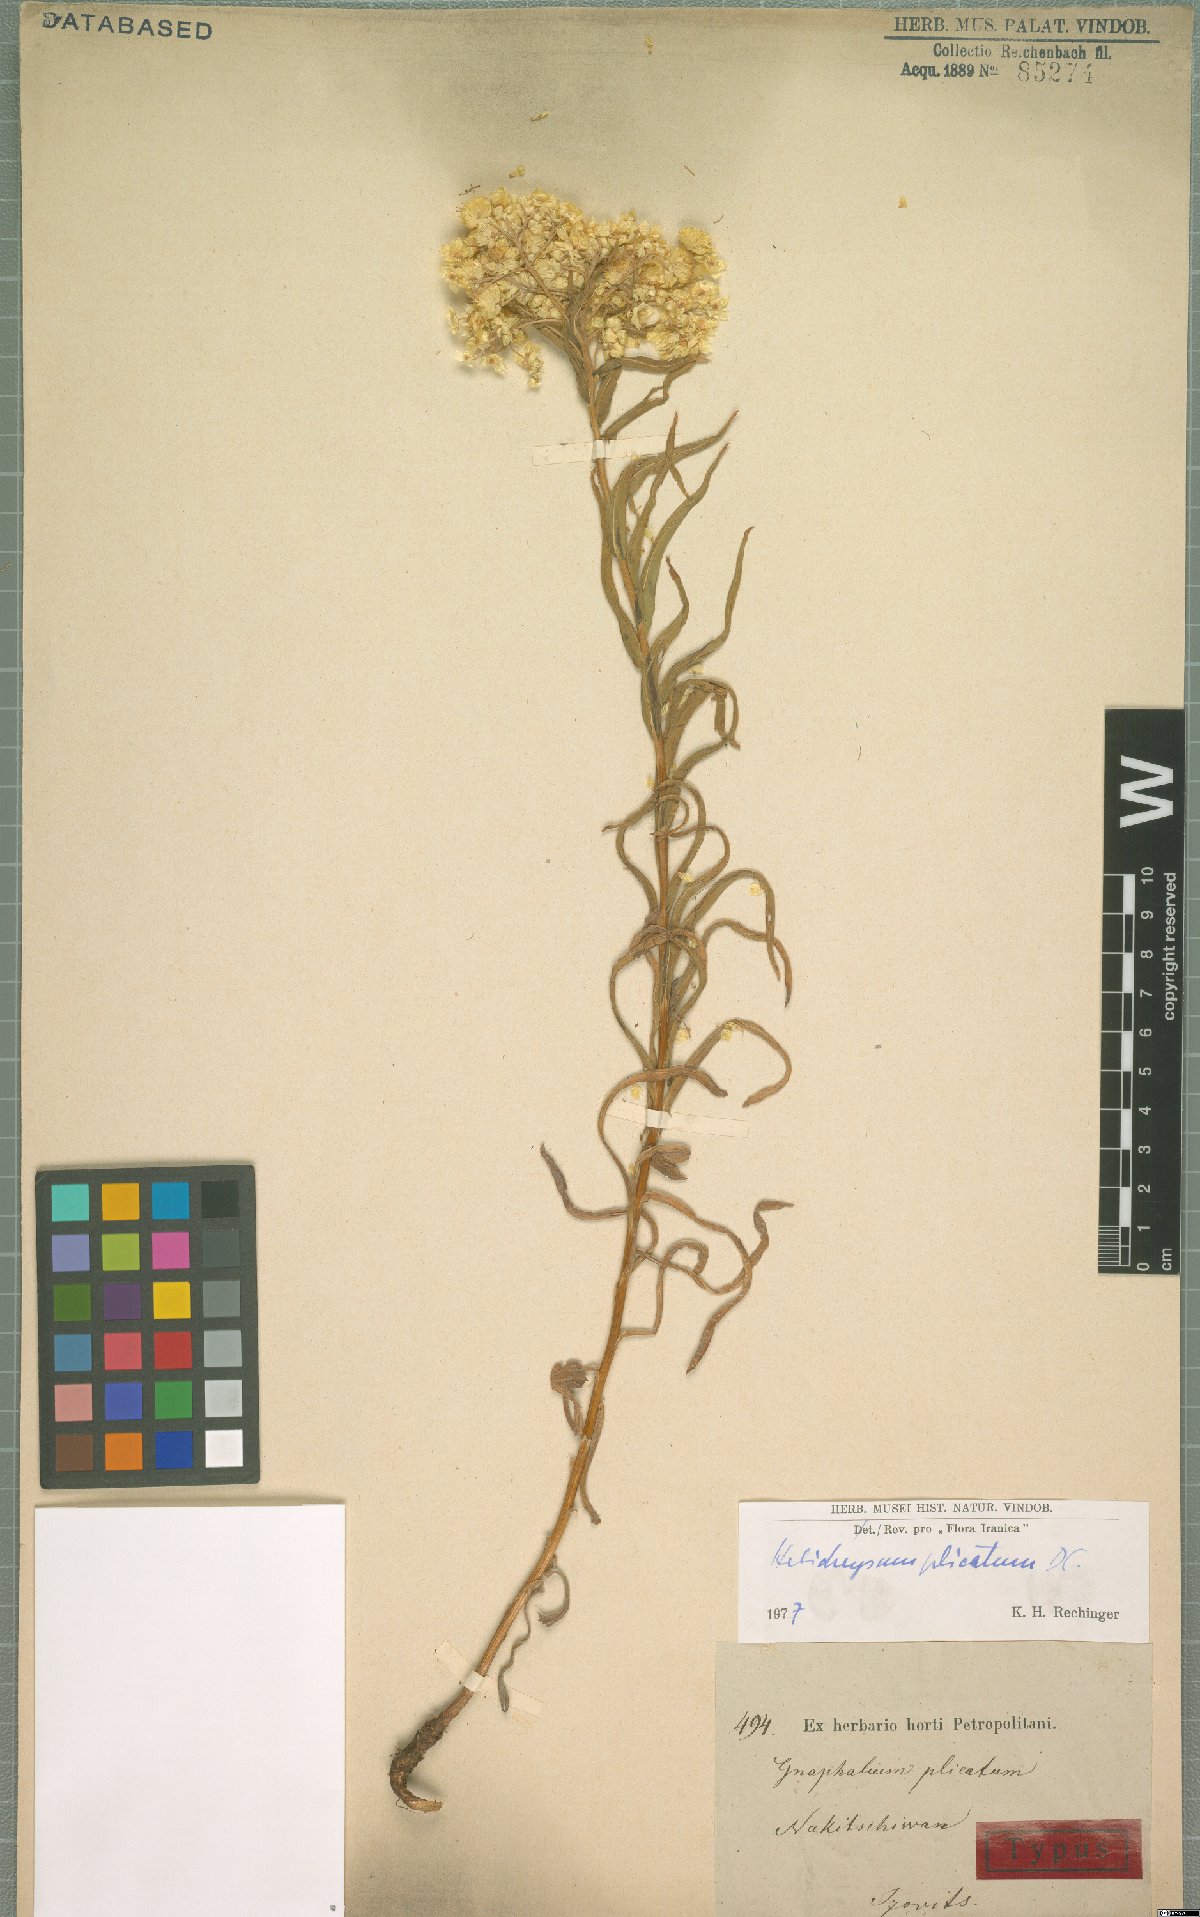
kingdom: Plantae
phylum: Tracheophyta
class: Magnoliopsida
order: Asterales
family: Asteraceae
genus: Helichrysum
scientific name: Helichrysum plicatum
